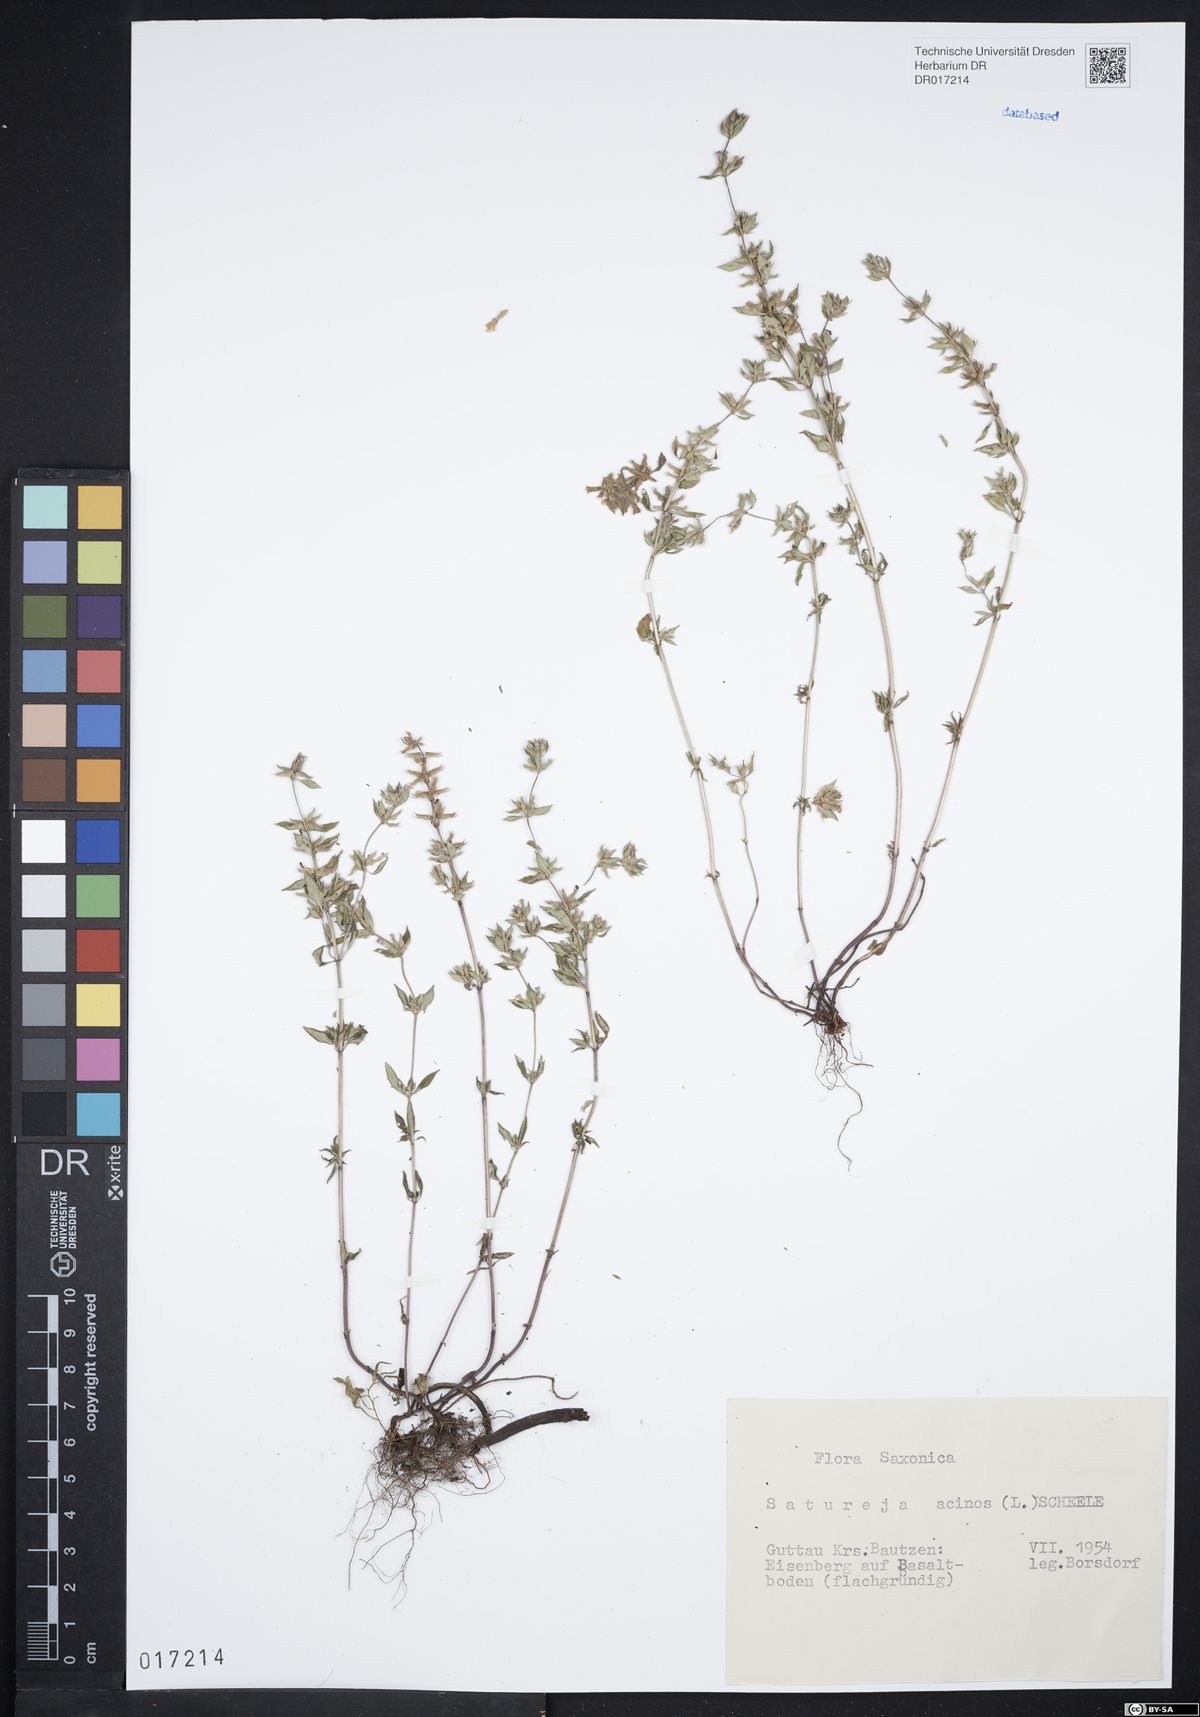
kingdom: Plantae
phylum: Tracheophyta
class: Magnoliopsida
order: Lamiales
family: Lamiaceae
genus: Clinopodium
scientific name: Clinopodium acinos
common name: Basil thyme
